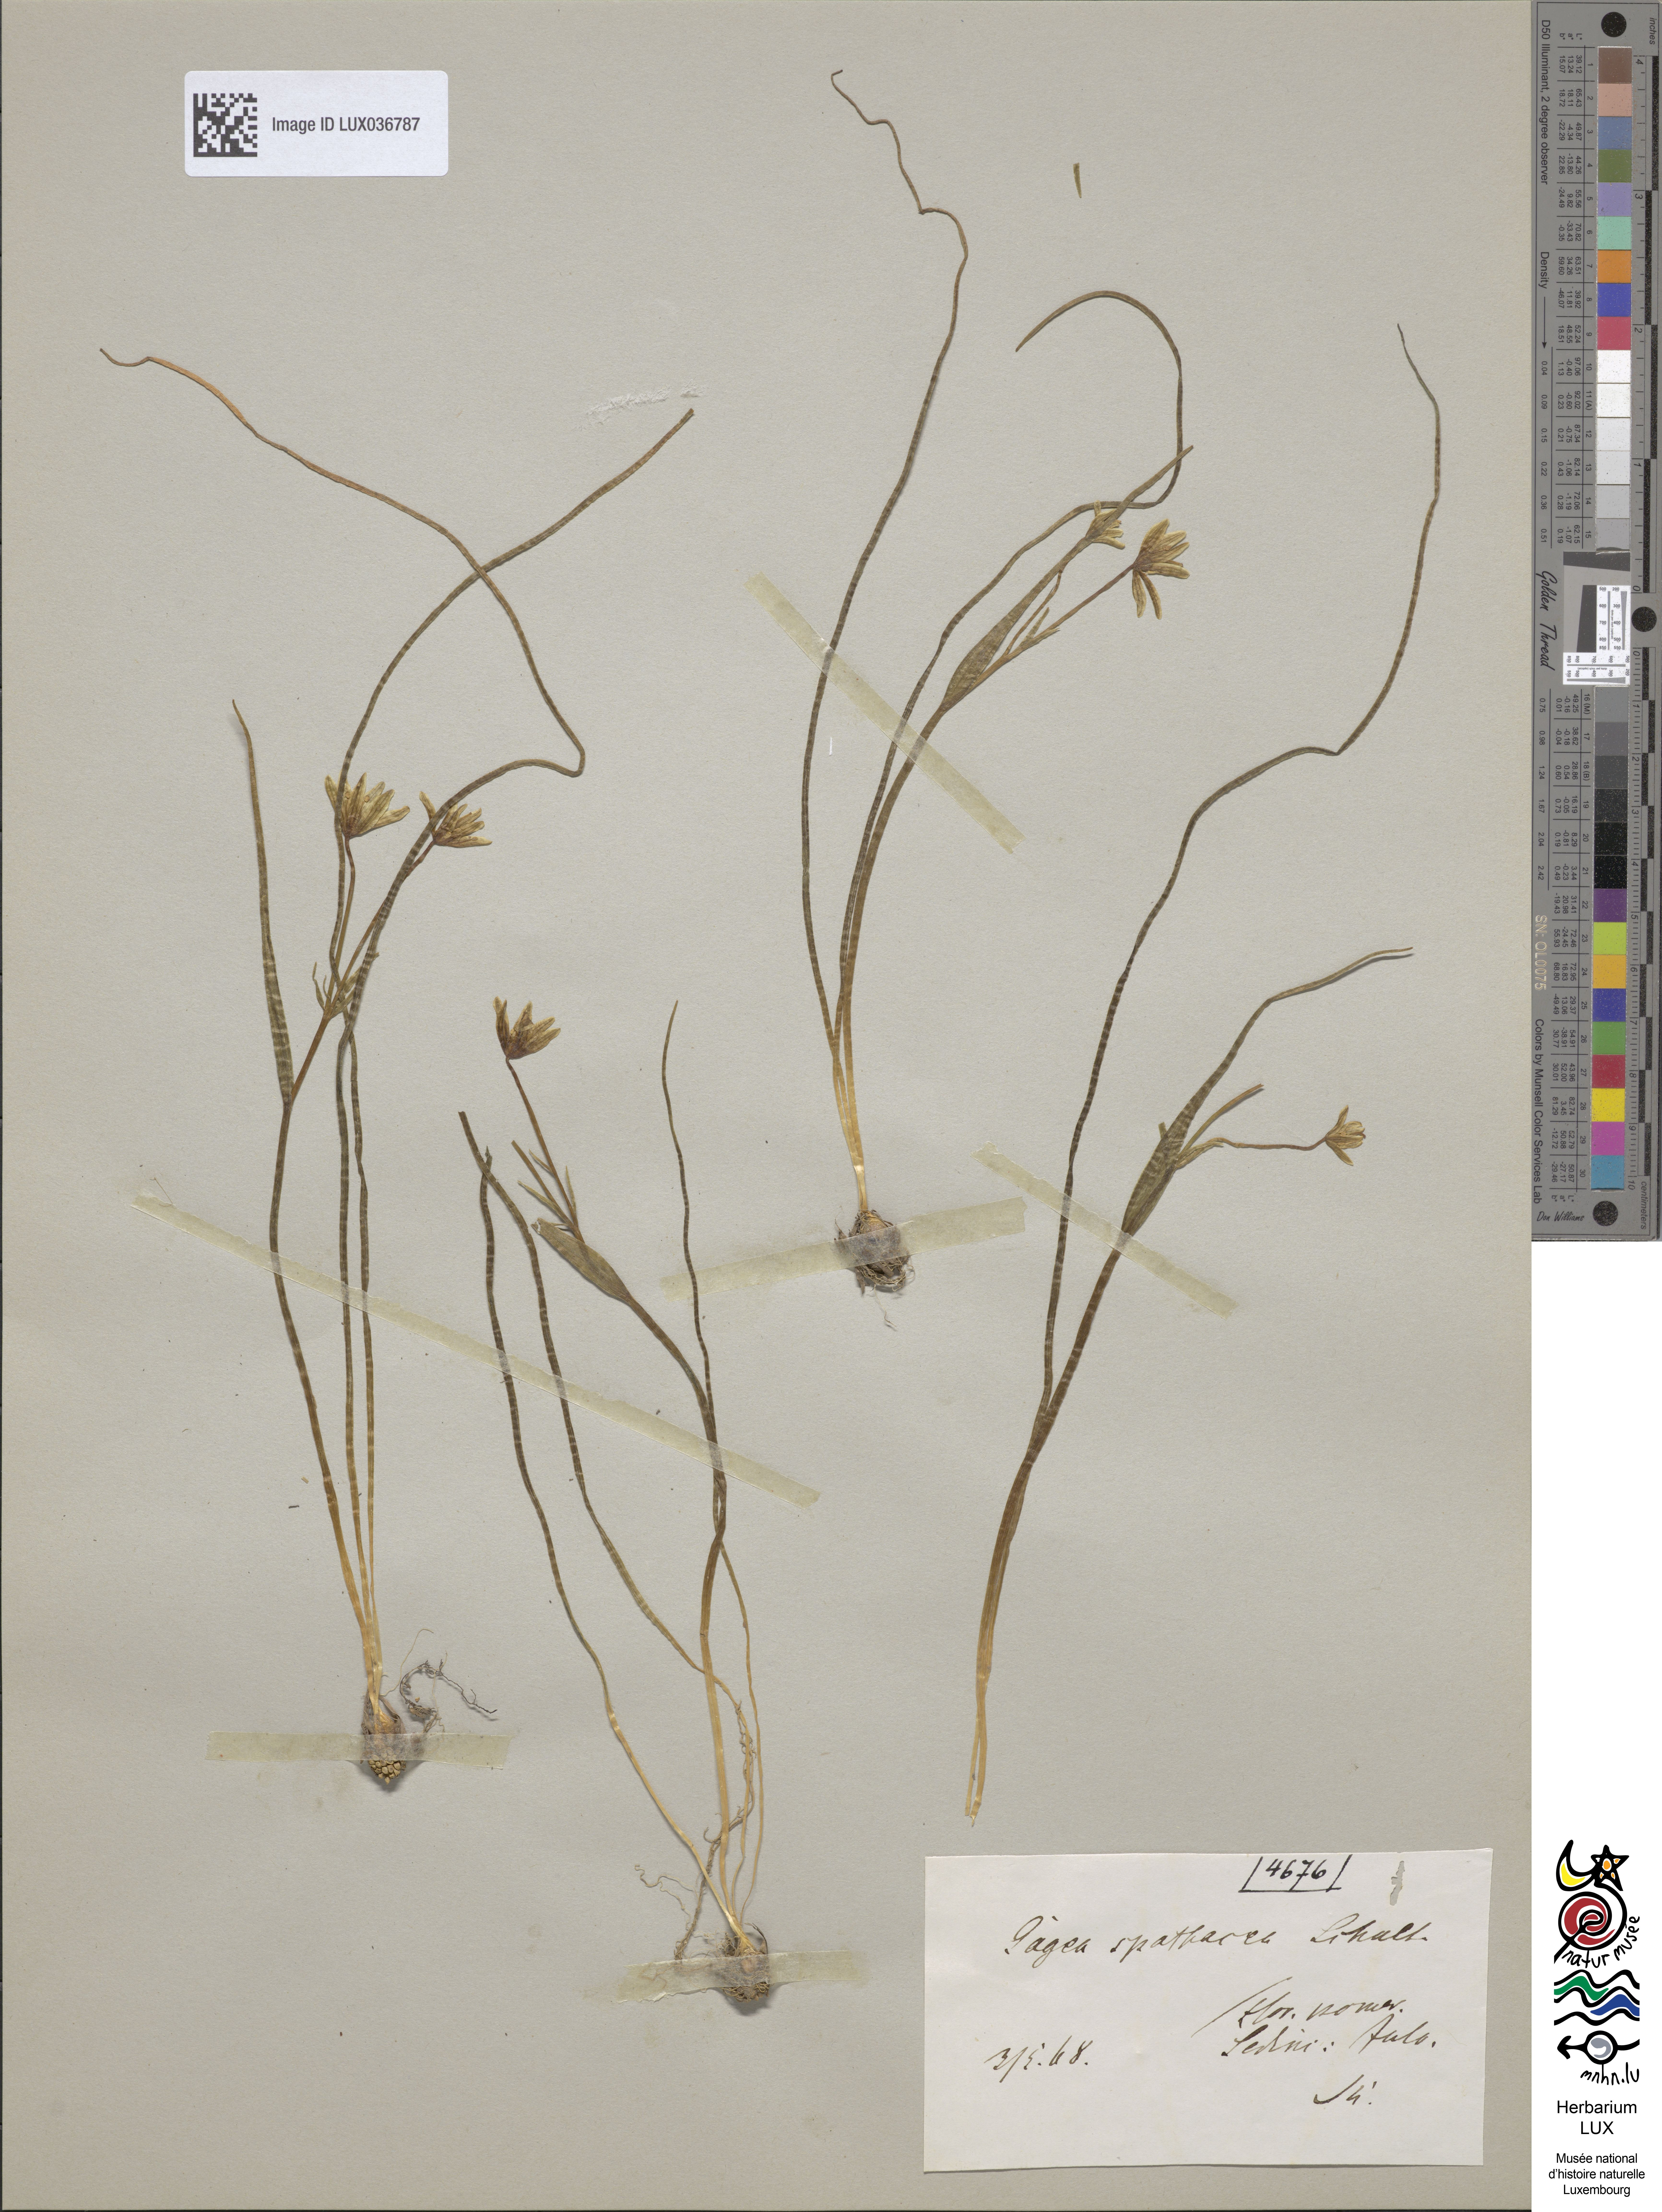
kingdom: Plantae
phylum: Tracheophyta
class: Liliopsida
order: Liliales
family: Liliaceae
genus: Gagea
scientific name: Gagea spathacea
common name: Belgian gagea
